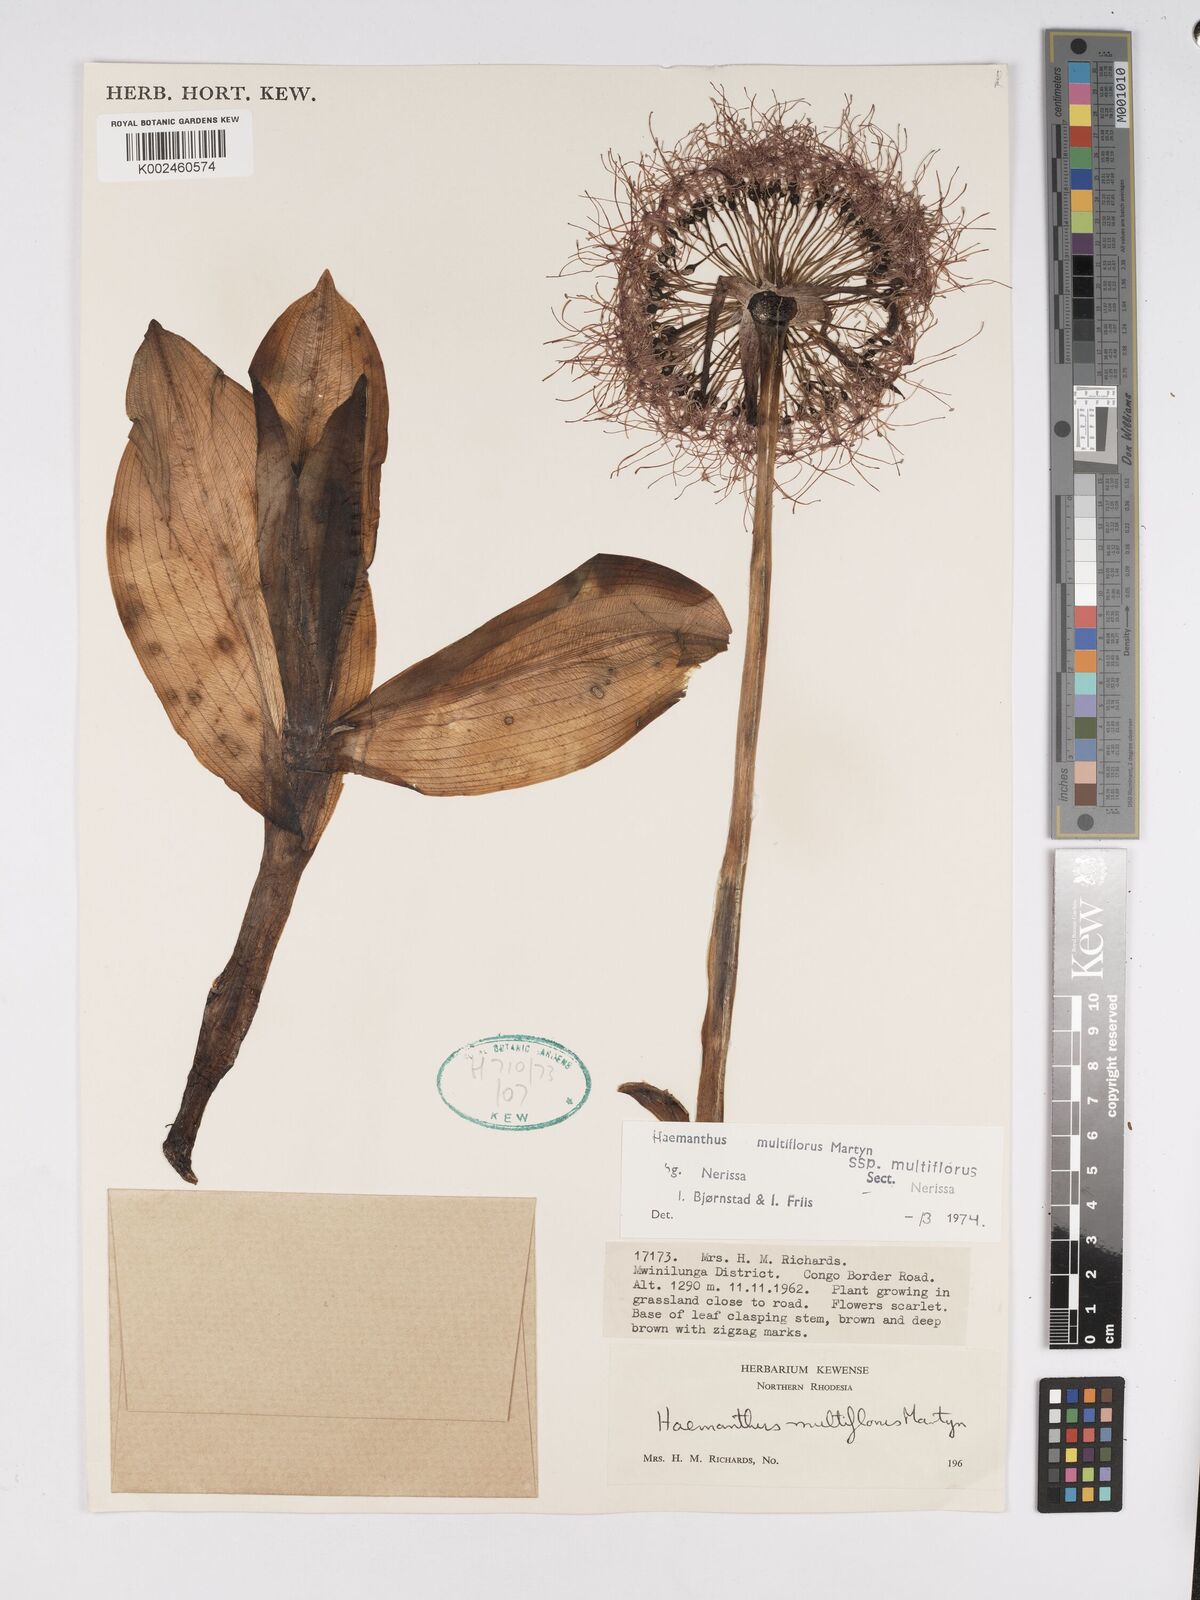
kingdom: Plantae
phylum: Tracheophyta
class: Liliopsida
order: Asparagales
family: Amaryllidaceae
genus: Scadoxus
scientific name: Scadoxus multiflorus
